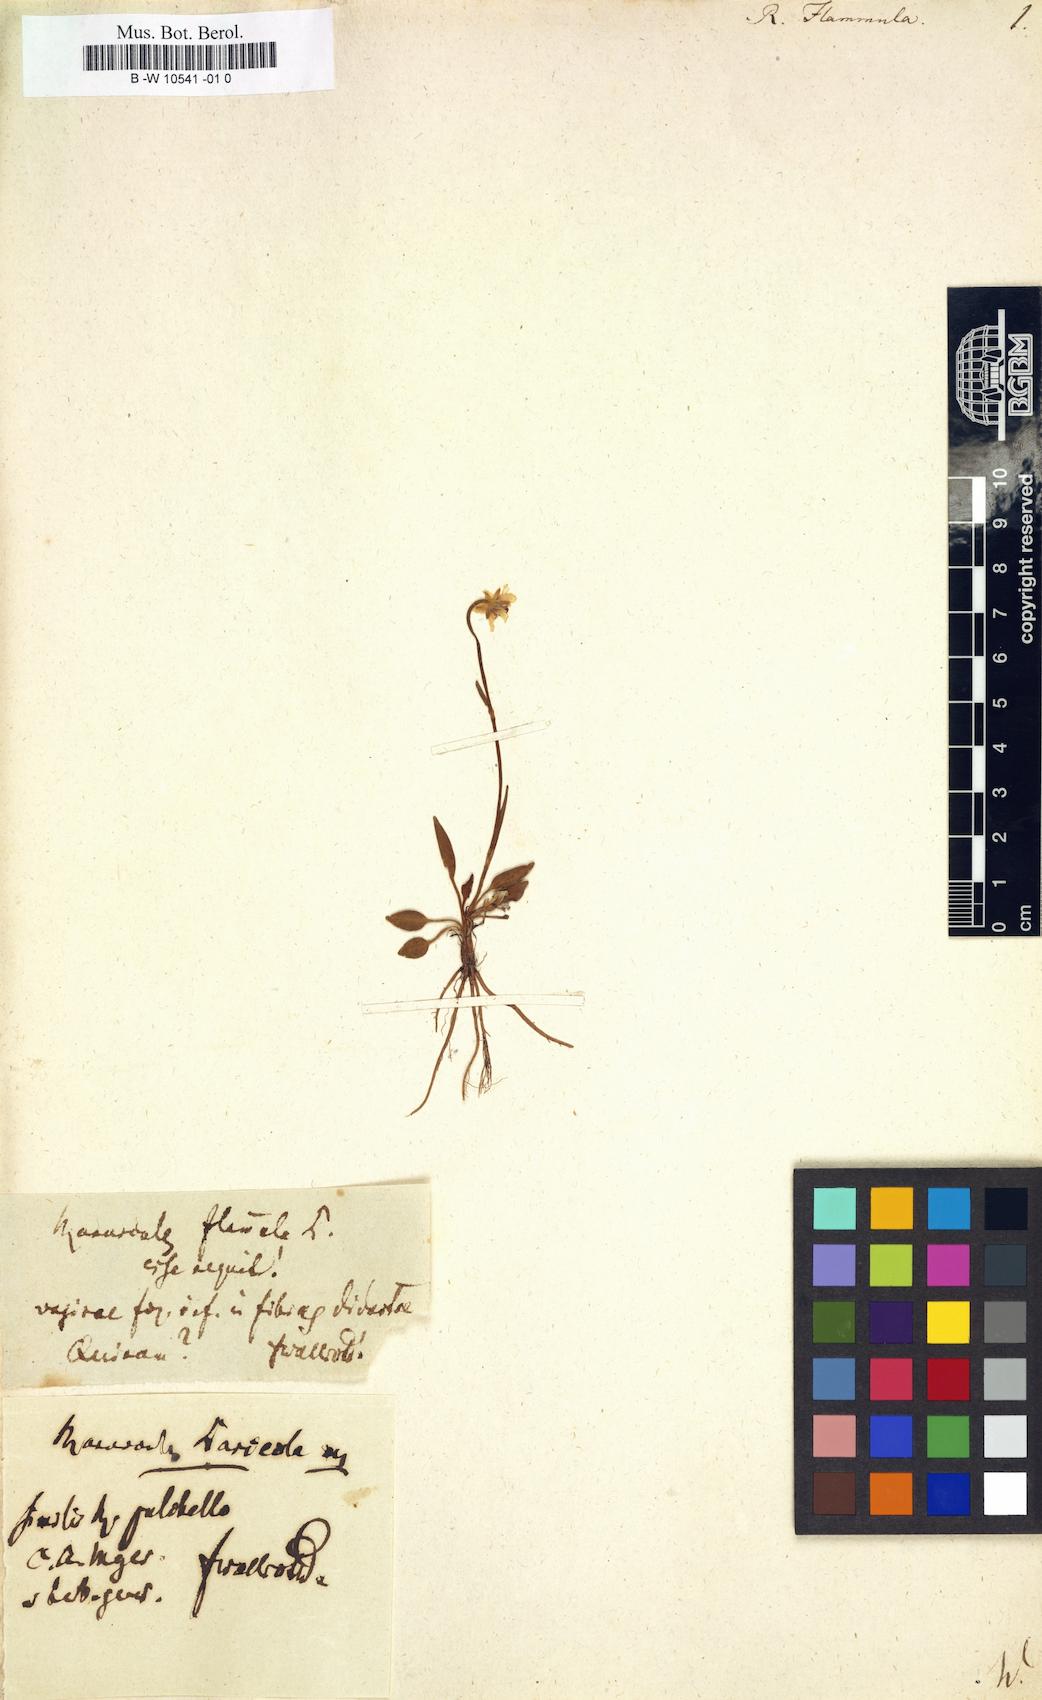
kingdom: Plantae
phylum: Tracheophyta
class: Magnoliopsida
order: Ranunculales
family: Ranunculaceae
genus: Ranunculus
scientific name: Ranunculus flammula
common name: Lesser spearwort
